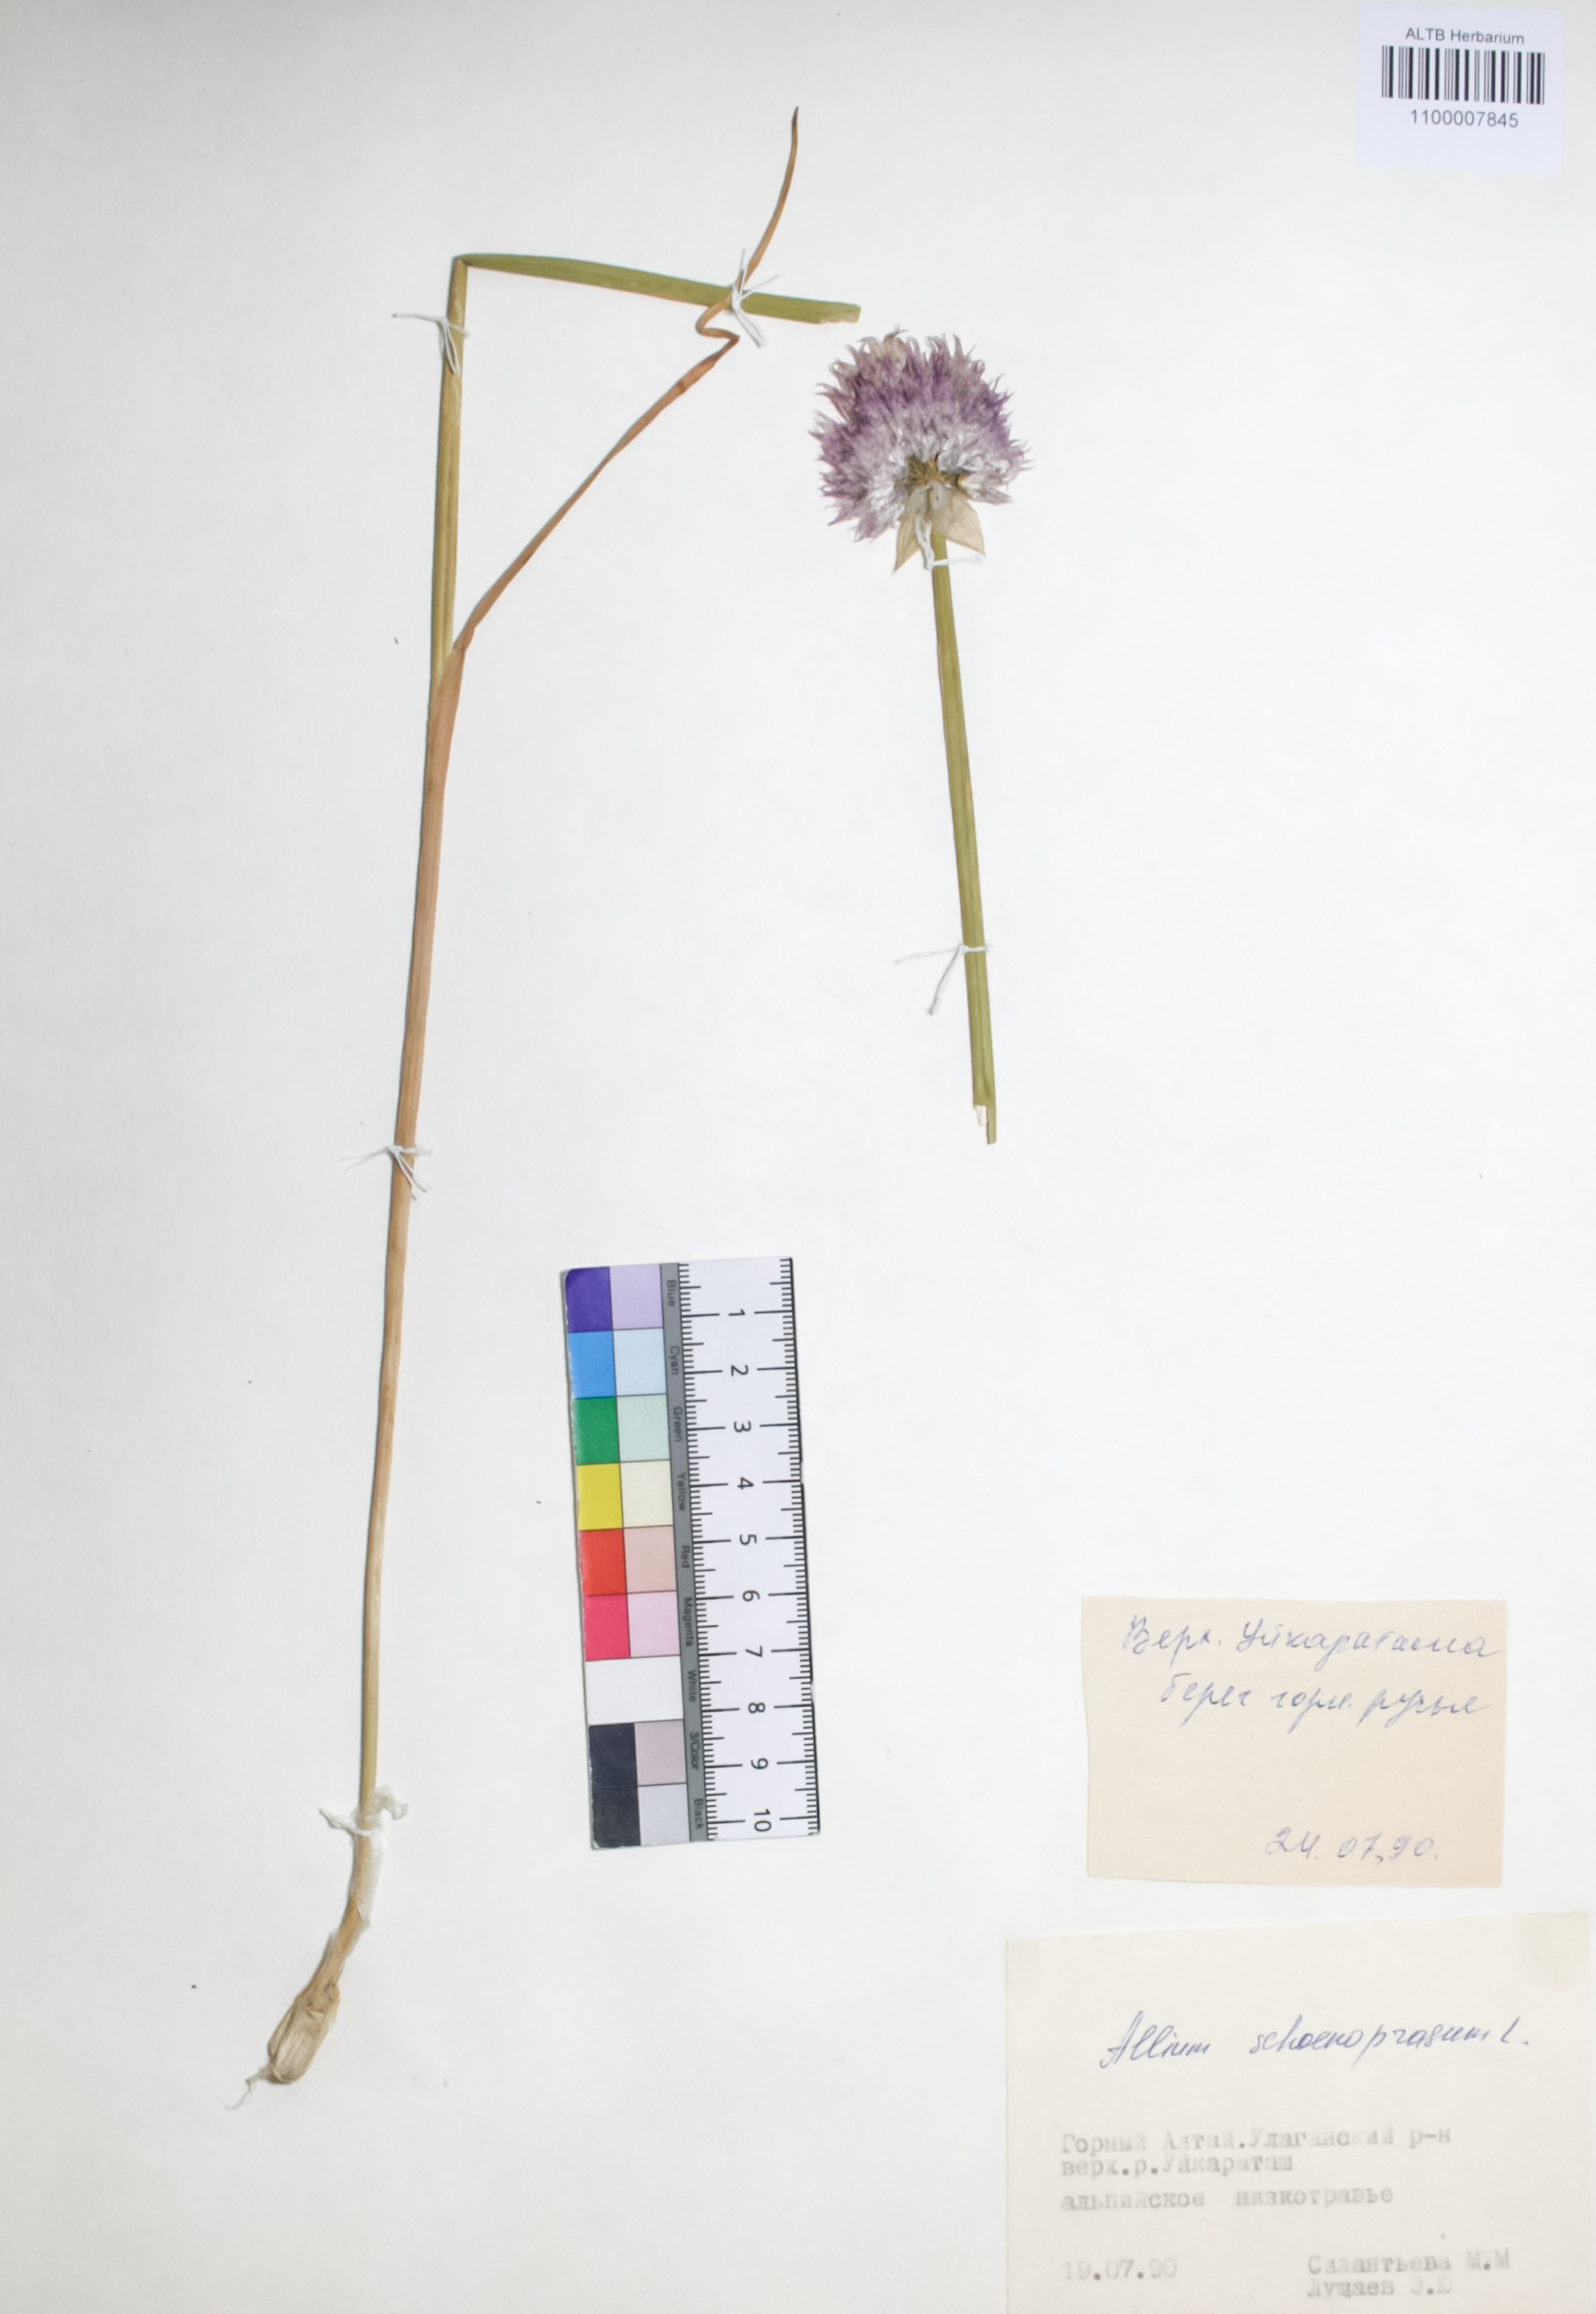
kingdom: Plantae
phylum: Tracheophyta
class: Liliopsida
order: Asparagales
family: Amaryllidaceae
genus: Allium
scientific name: Allium schoenoprasum
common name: Chives
